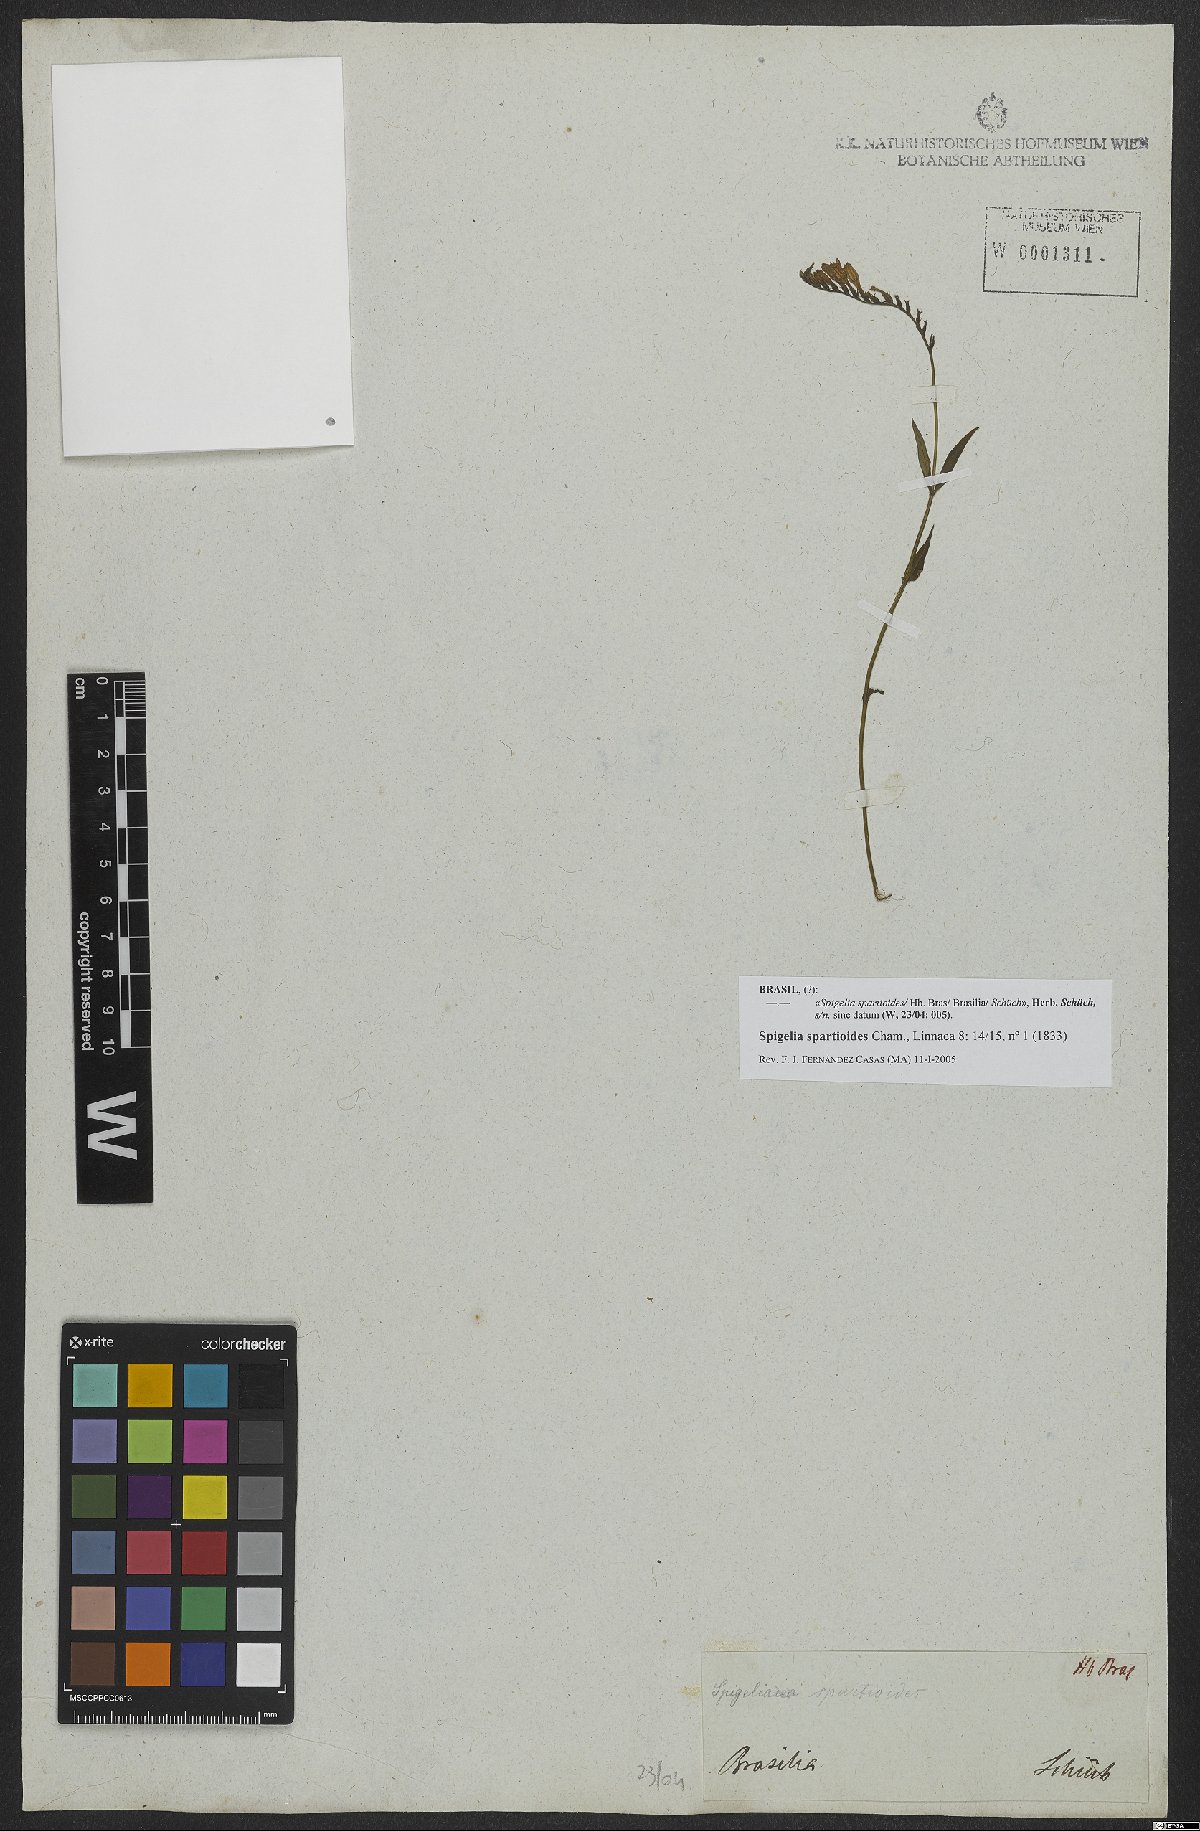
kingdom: Plantae
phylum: Tracheophyta
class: Magnoliopsida
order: Gentianales
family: Loganiaceae
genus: Spigelia
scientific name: Spigelia spartioides
